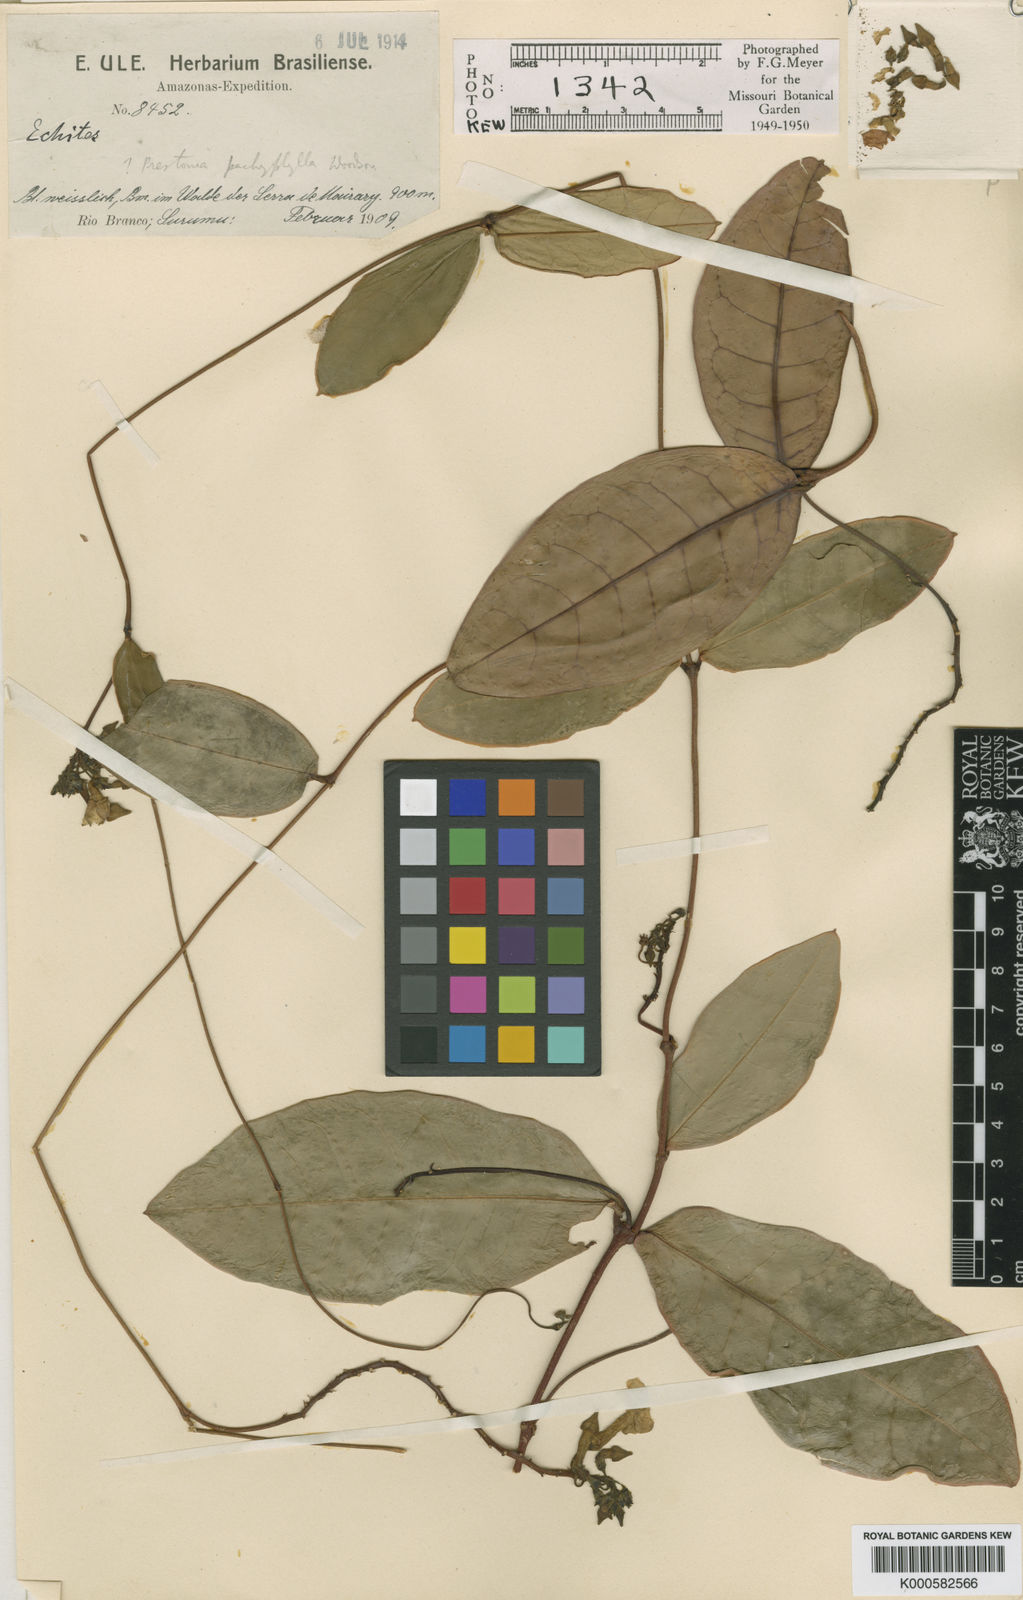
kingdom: Plantae
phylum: Tracheophyta
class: Magnoliopsida
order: Gentianales
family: Apocynaceae
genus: Prestonia
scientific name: Prestonia
